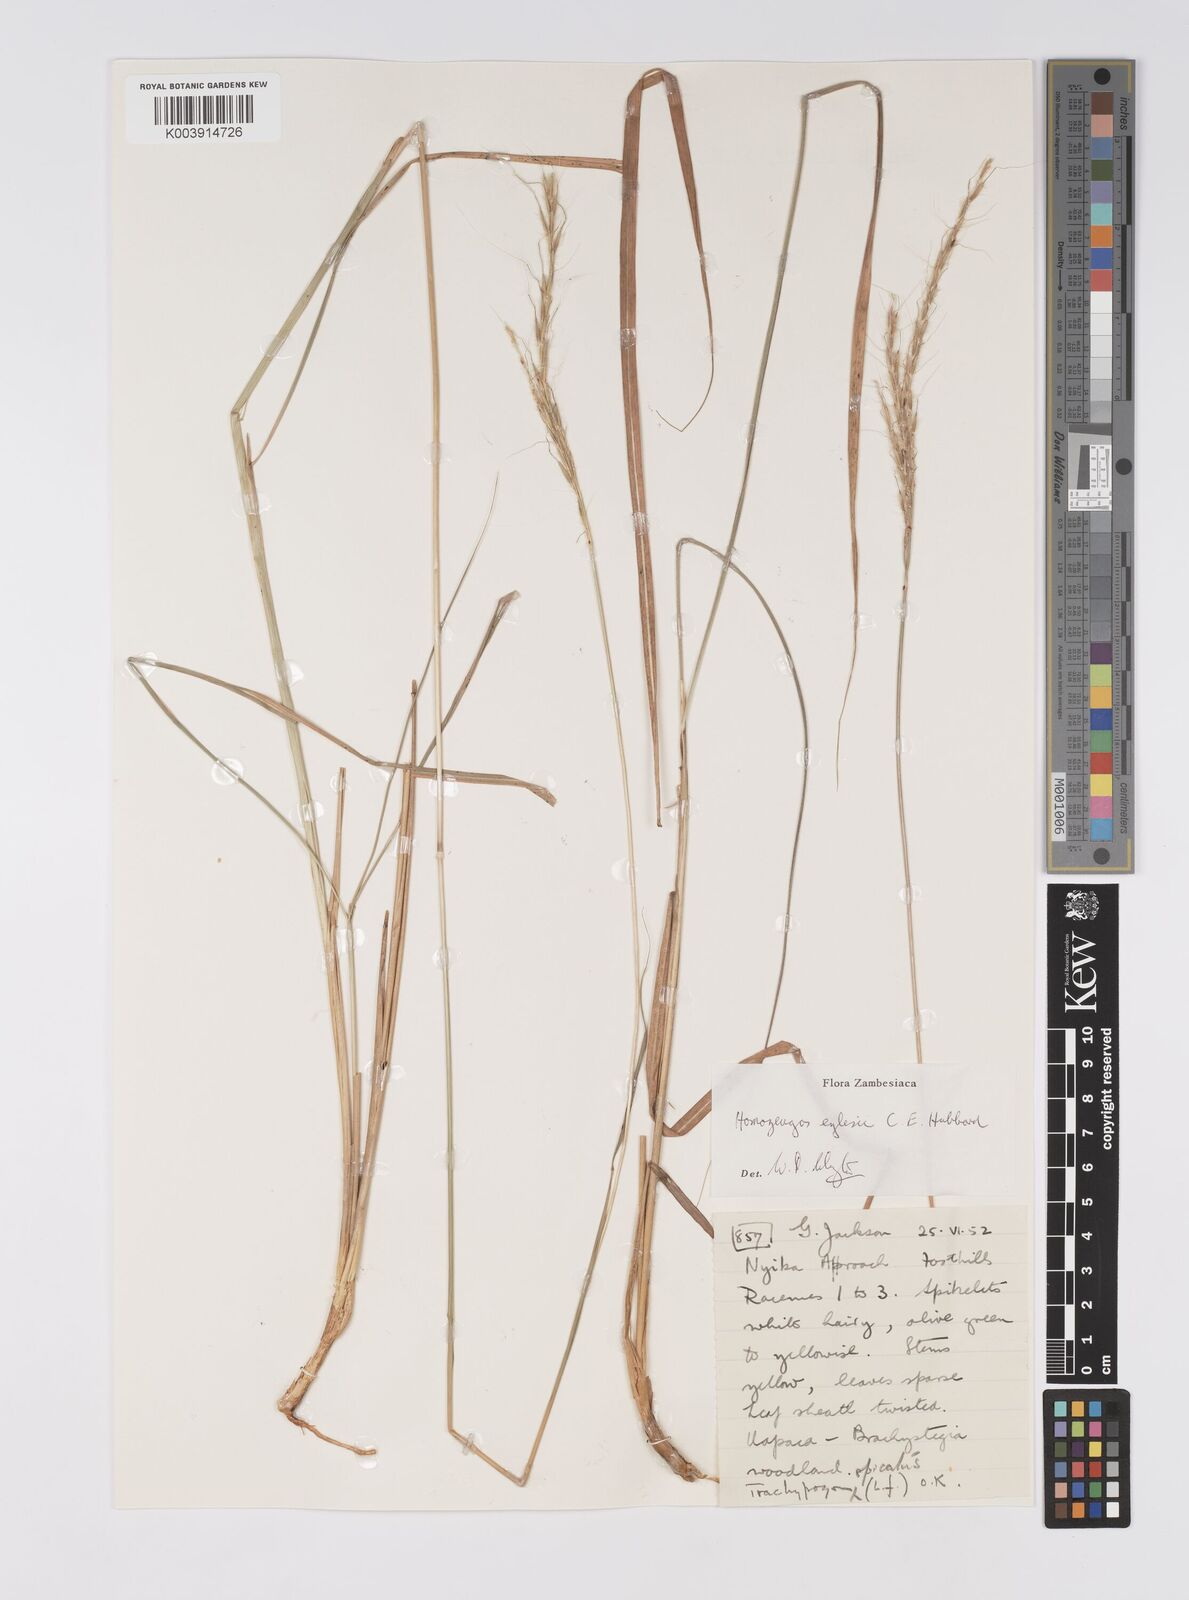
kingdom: Plantae
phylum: Tracheophyta
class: Liliopsida
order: Poales
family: Poaceae
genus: Homozeugos
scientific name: Homozeugos eylesii
